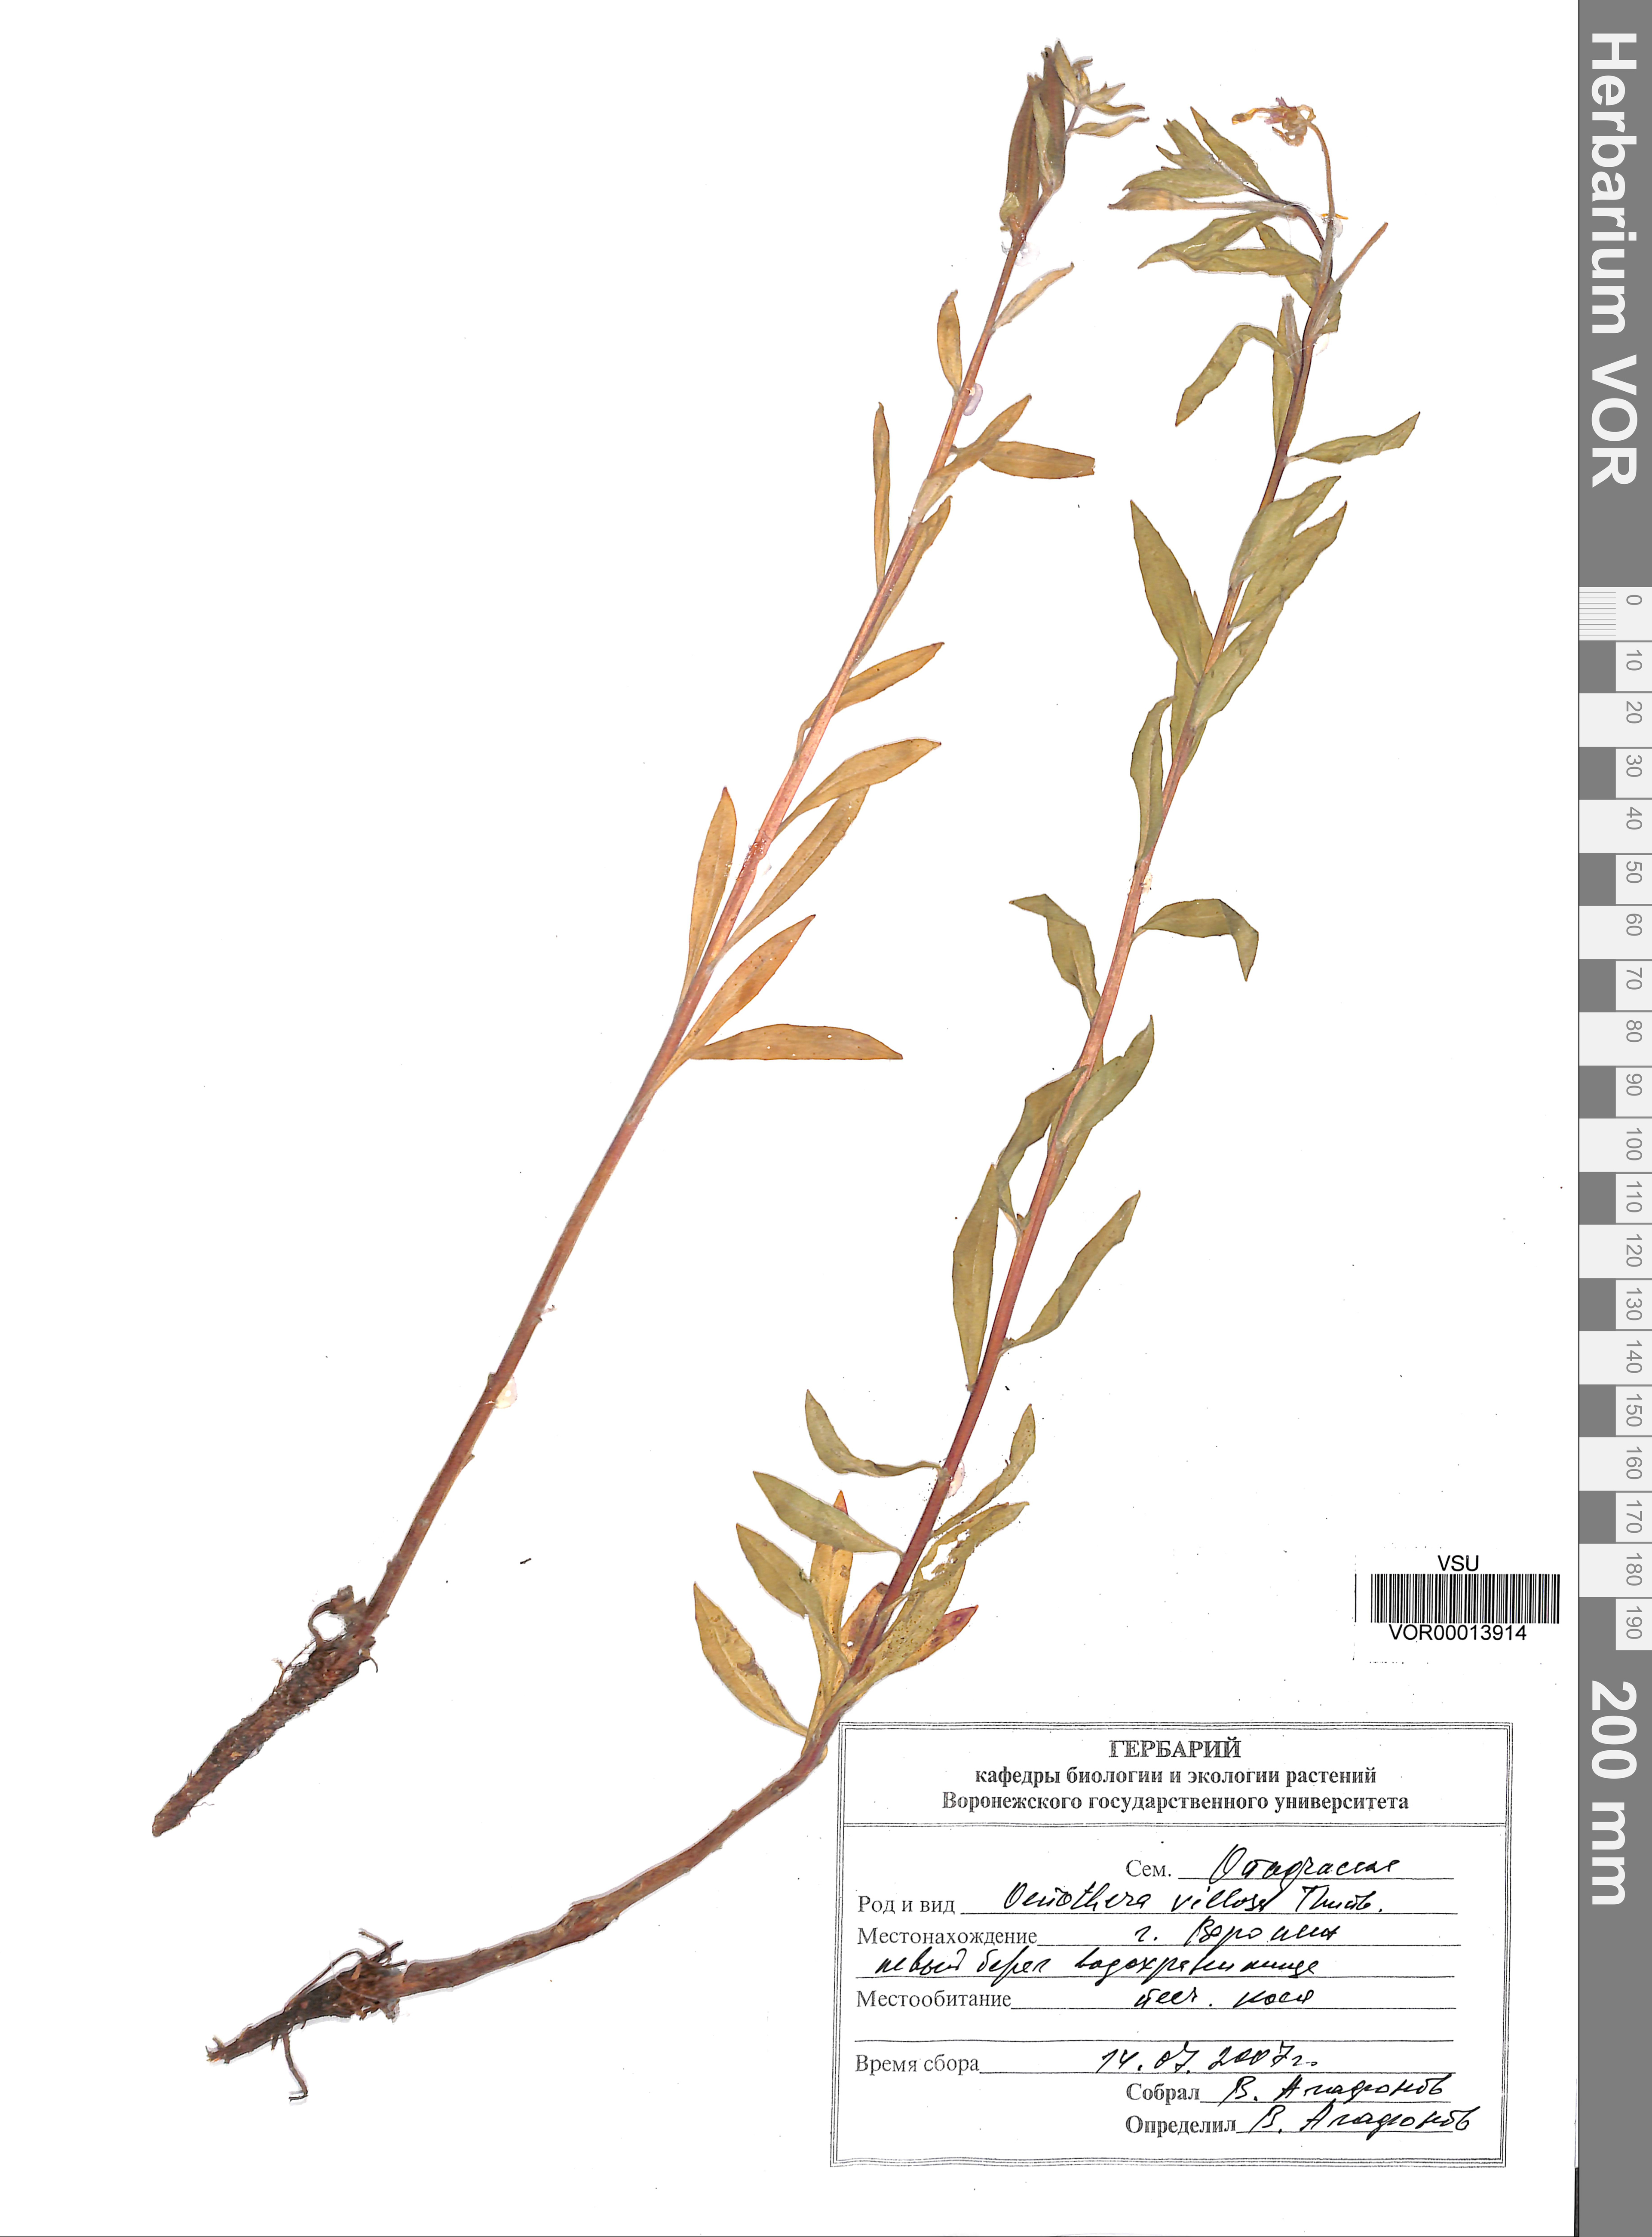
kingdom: Plantae
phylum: Tracheophyta
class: Magnoliopsida
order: Myrtales
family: Onagraceae
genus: Oenothera
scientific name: Oenothera villosa
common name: Hairy evening-primrose
